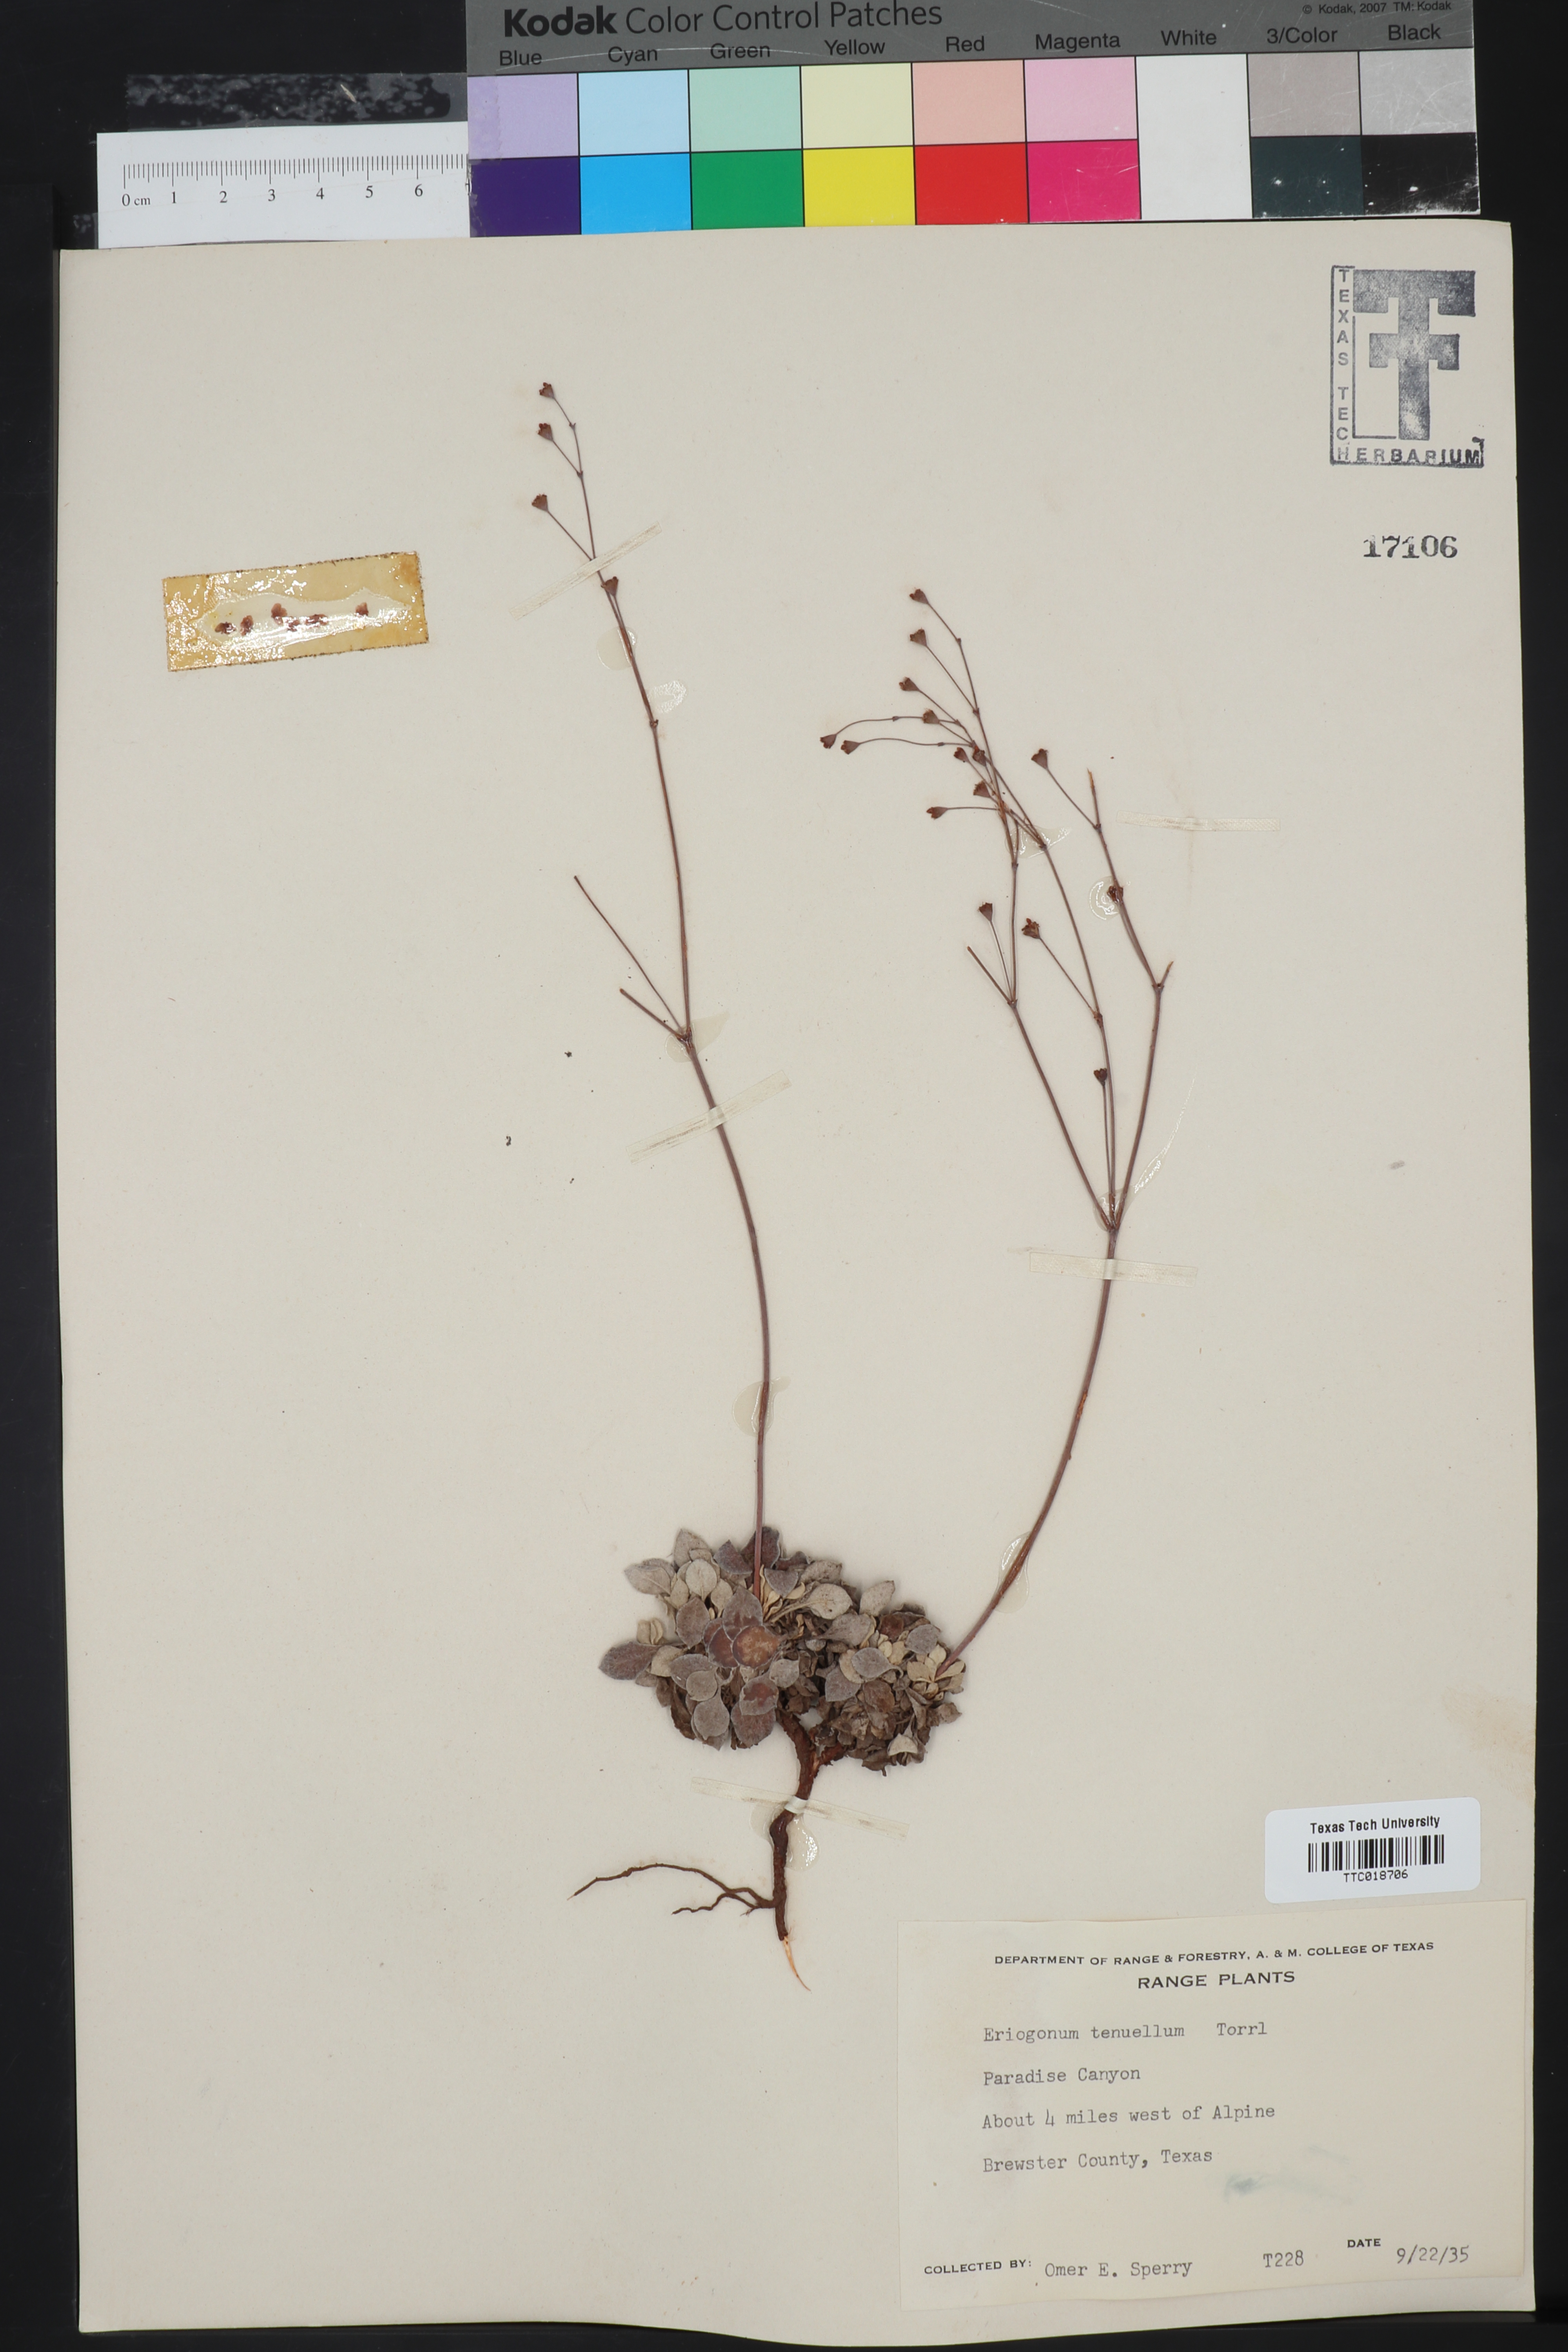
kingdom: Plantae
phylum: Tracheophyta
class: Magnoliopsida
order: Caryophyllales
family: Polygonaceae
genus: Eriogonum
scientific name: Eriogonum tenellum
